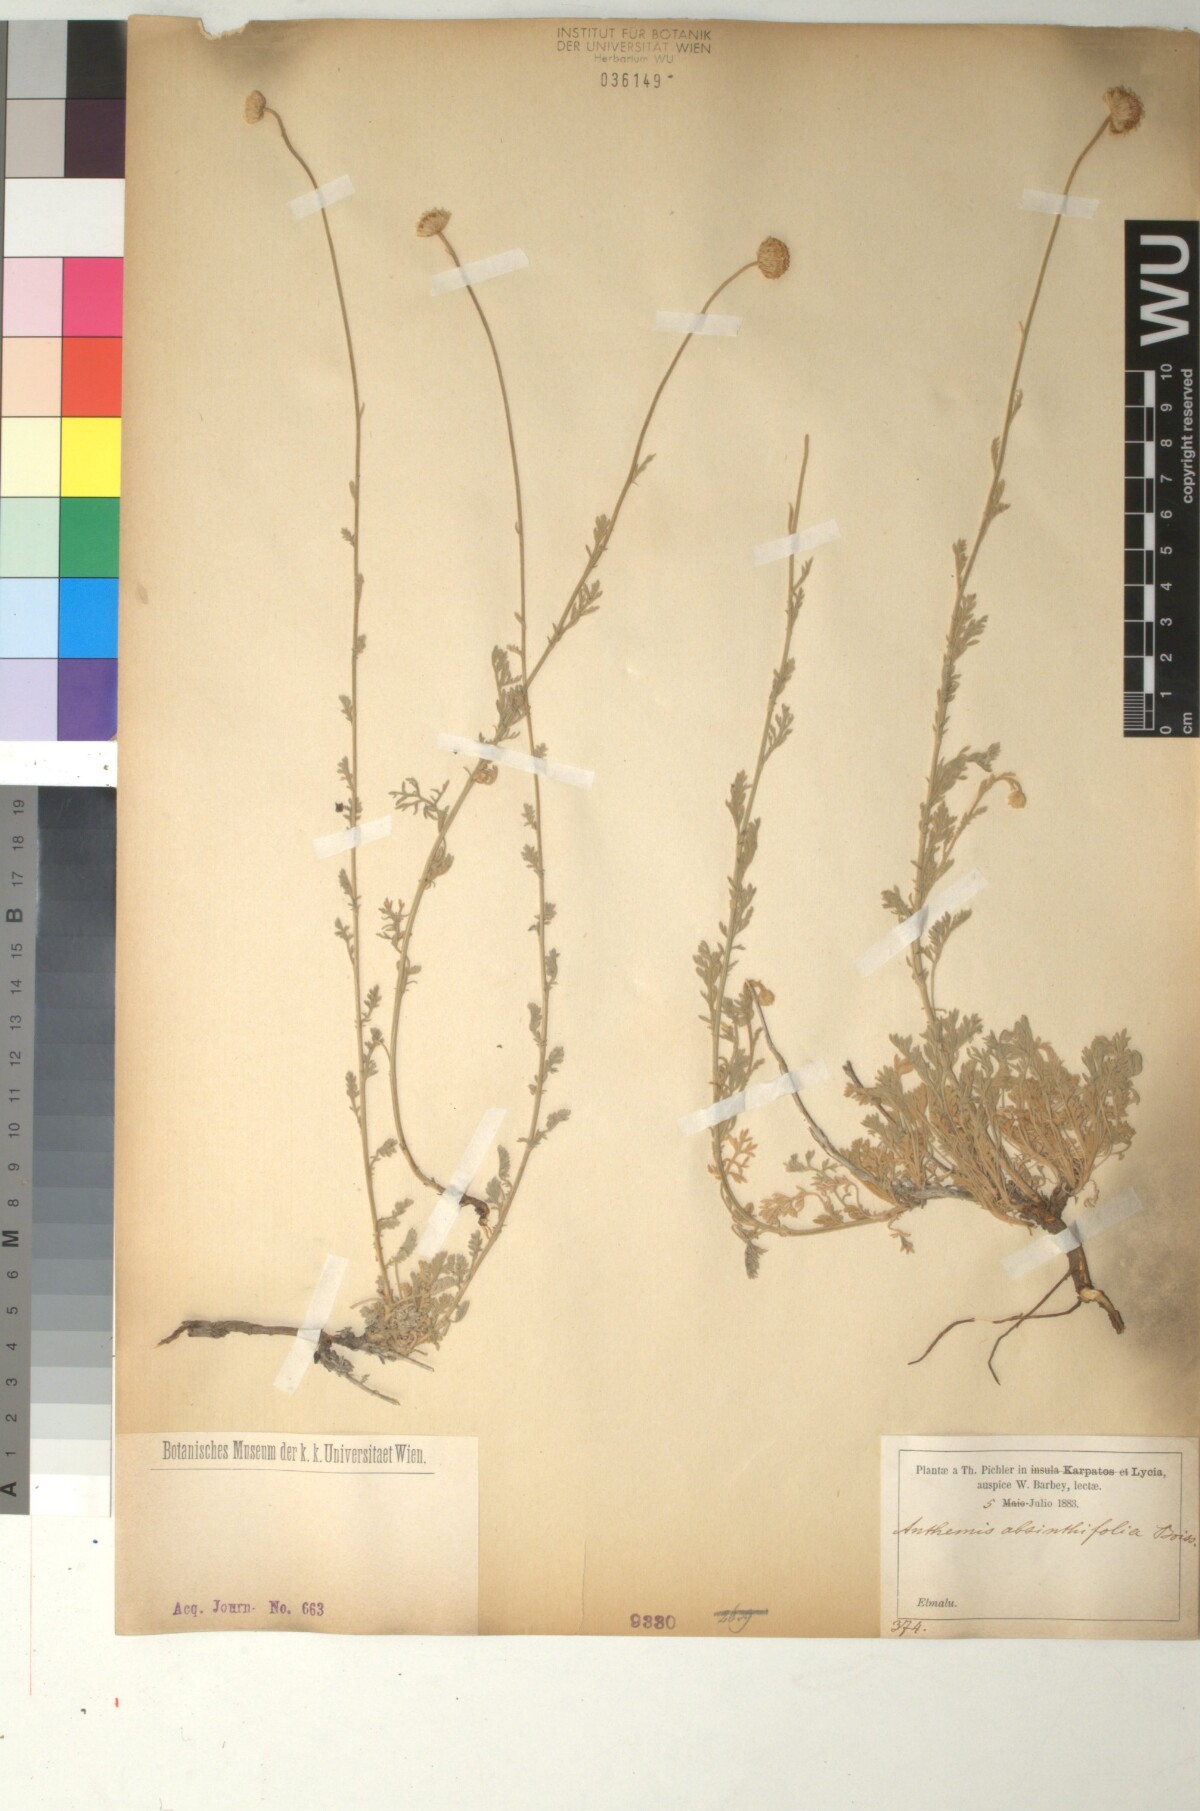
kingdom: Plantae
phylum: Tracheophyta
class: Magnoliopsida
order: Asterales
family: Asteraceae
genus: Anthemis
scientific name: Anthemis cretica
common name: Mountain dog-daisy
